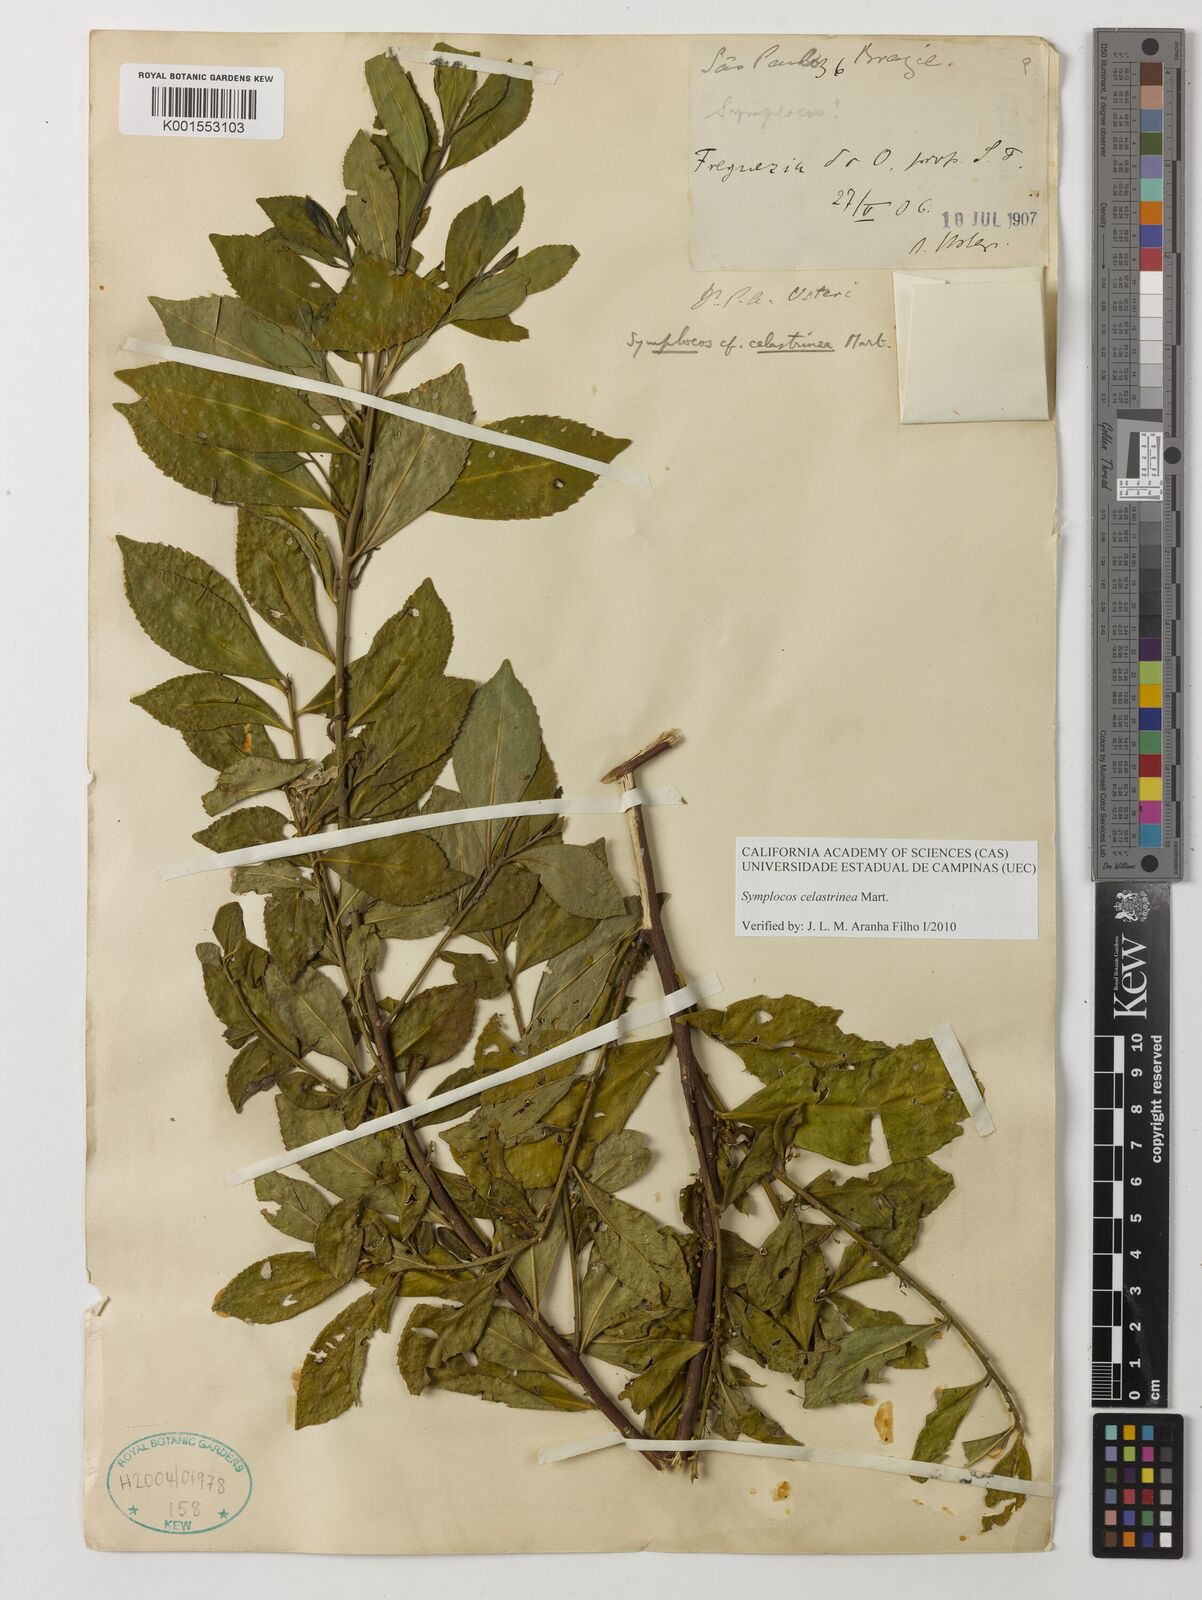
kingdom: Plantae
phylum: Tracheophyta
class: Magnoliopsida
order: Ericales
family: Symplocaceae
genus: Symplocos
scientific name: Symplocos celastrinea
